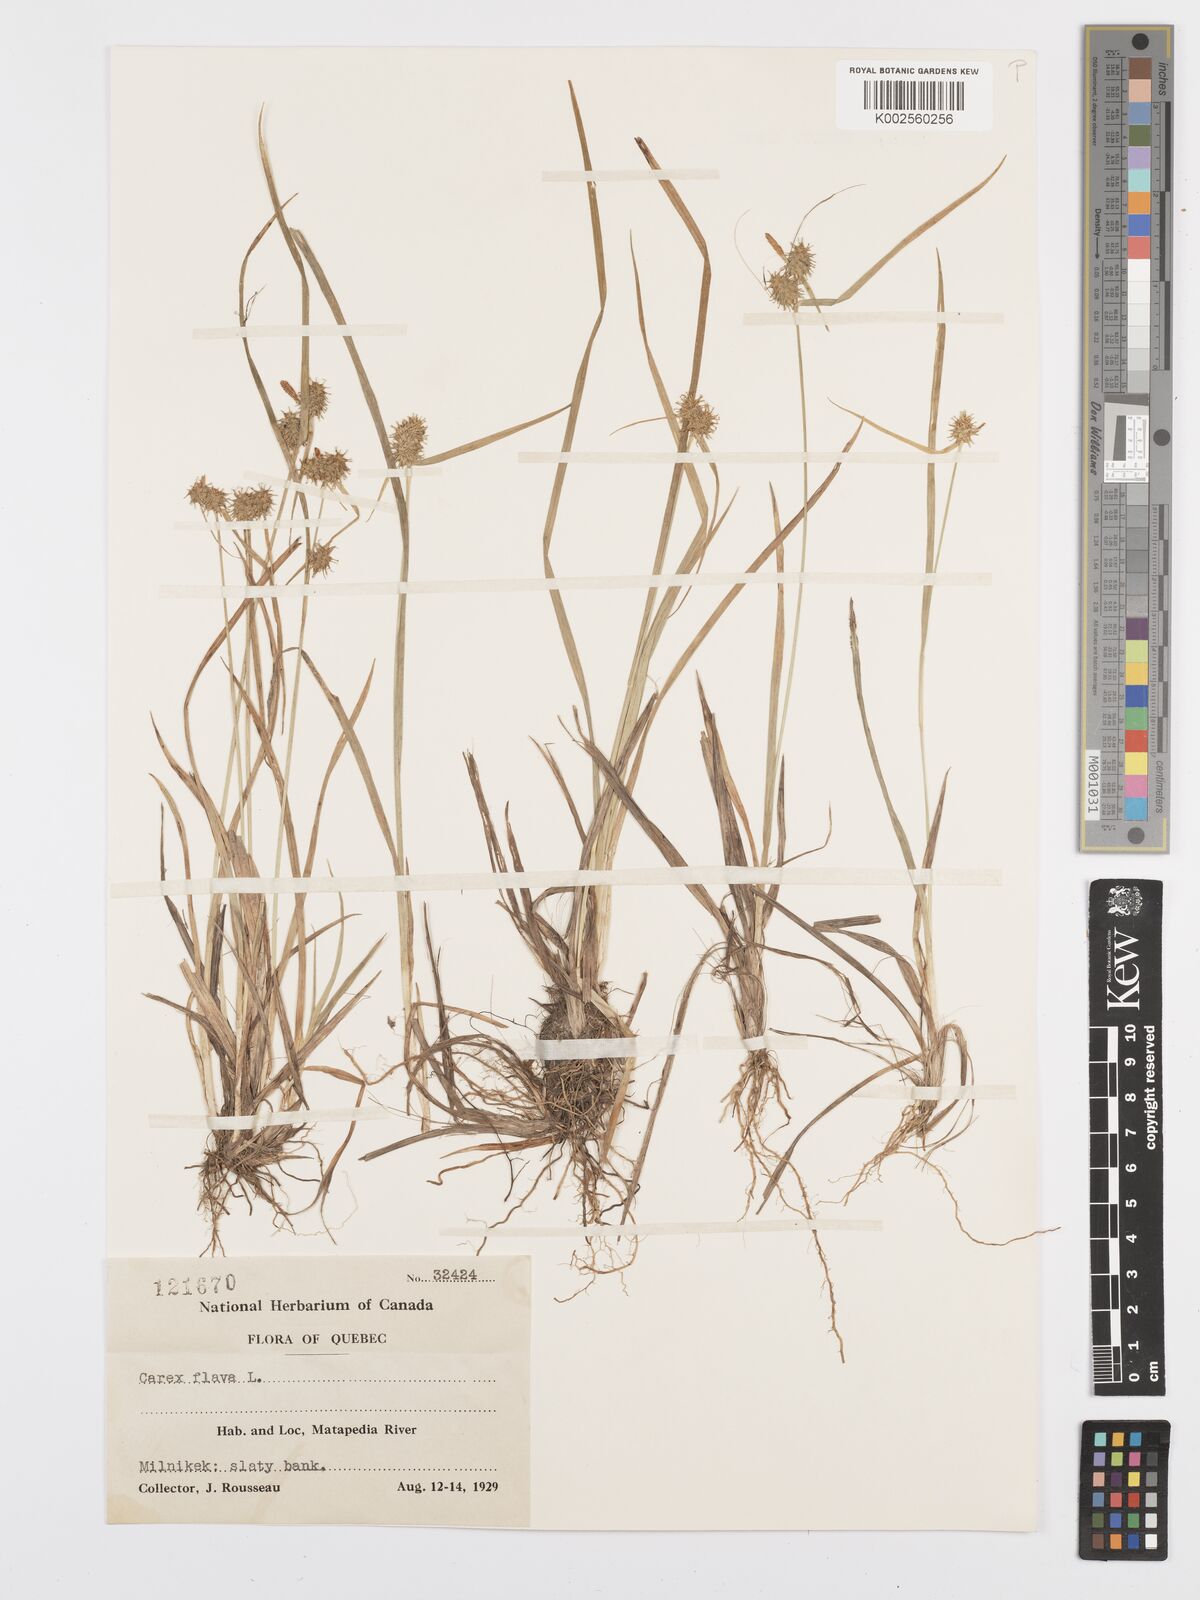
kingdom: Plantae
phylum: Tracheophyta
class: Liliopsida
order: Poales
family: Cyperaceae
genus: Carex
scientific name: Carex flava
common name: Large yellow-sedge
